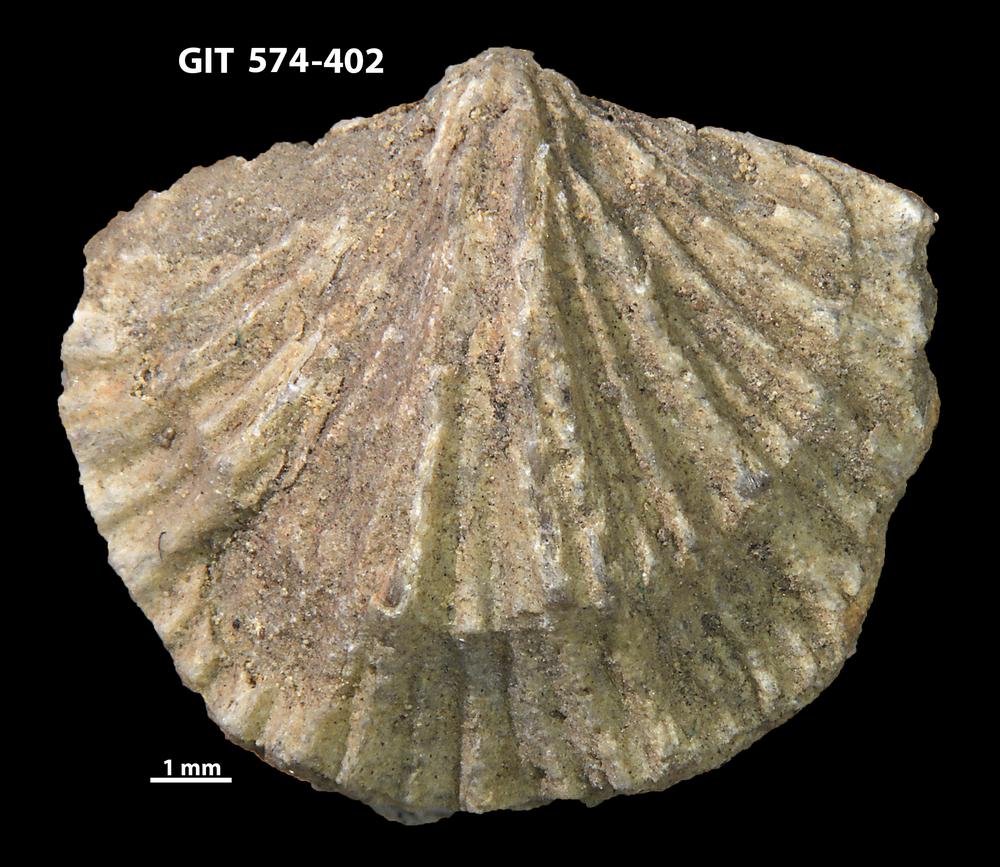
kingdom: Animalia
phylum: Brachiopoda
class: Rhynchonellata
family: Atrypinidae
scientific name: Atrypinidae
